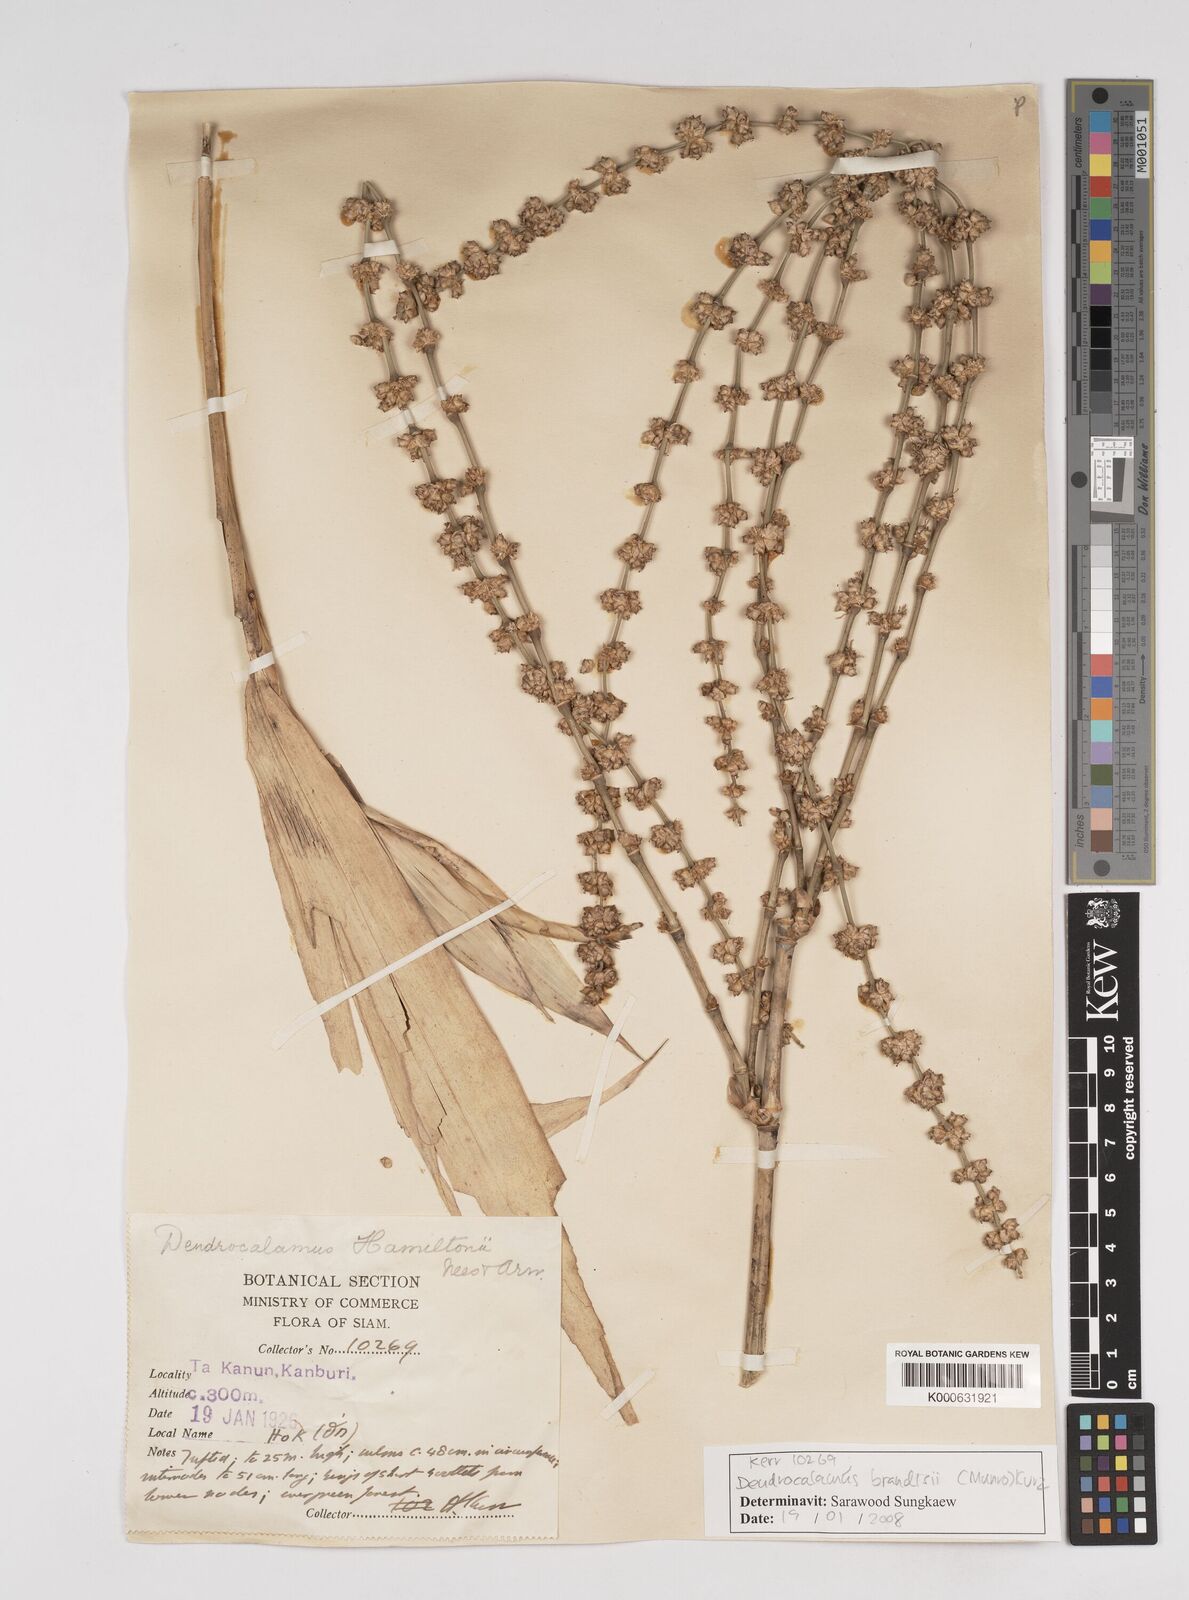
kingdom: Plantae
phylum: Tracheophyta
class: Liliopsida
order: Poales
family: Poaceae
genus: Dendrocalamus
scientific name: Dendrocalamus brandisii
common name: Velvetleaf bamboo
